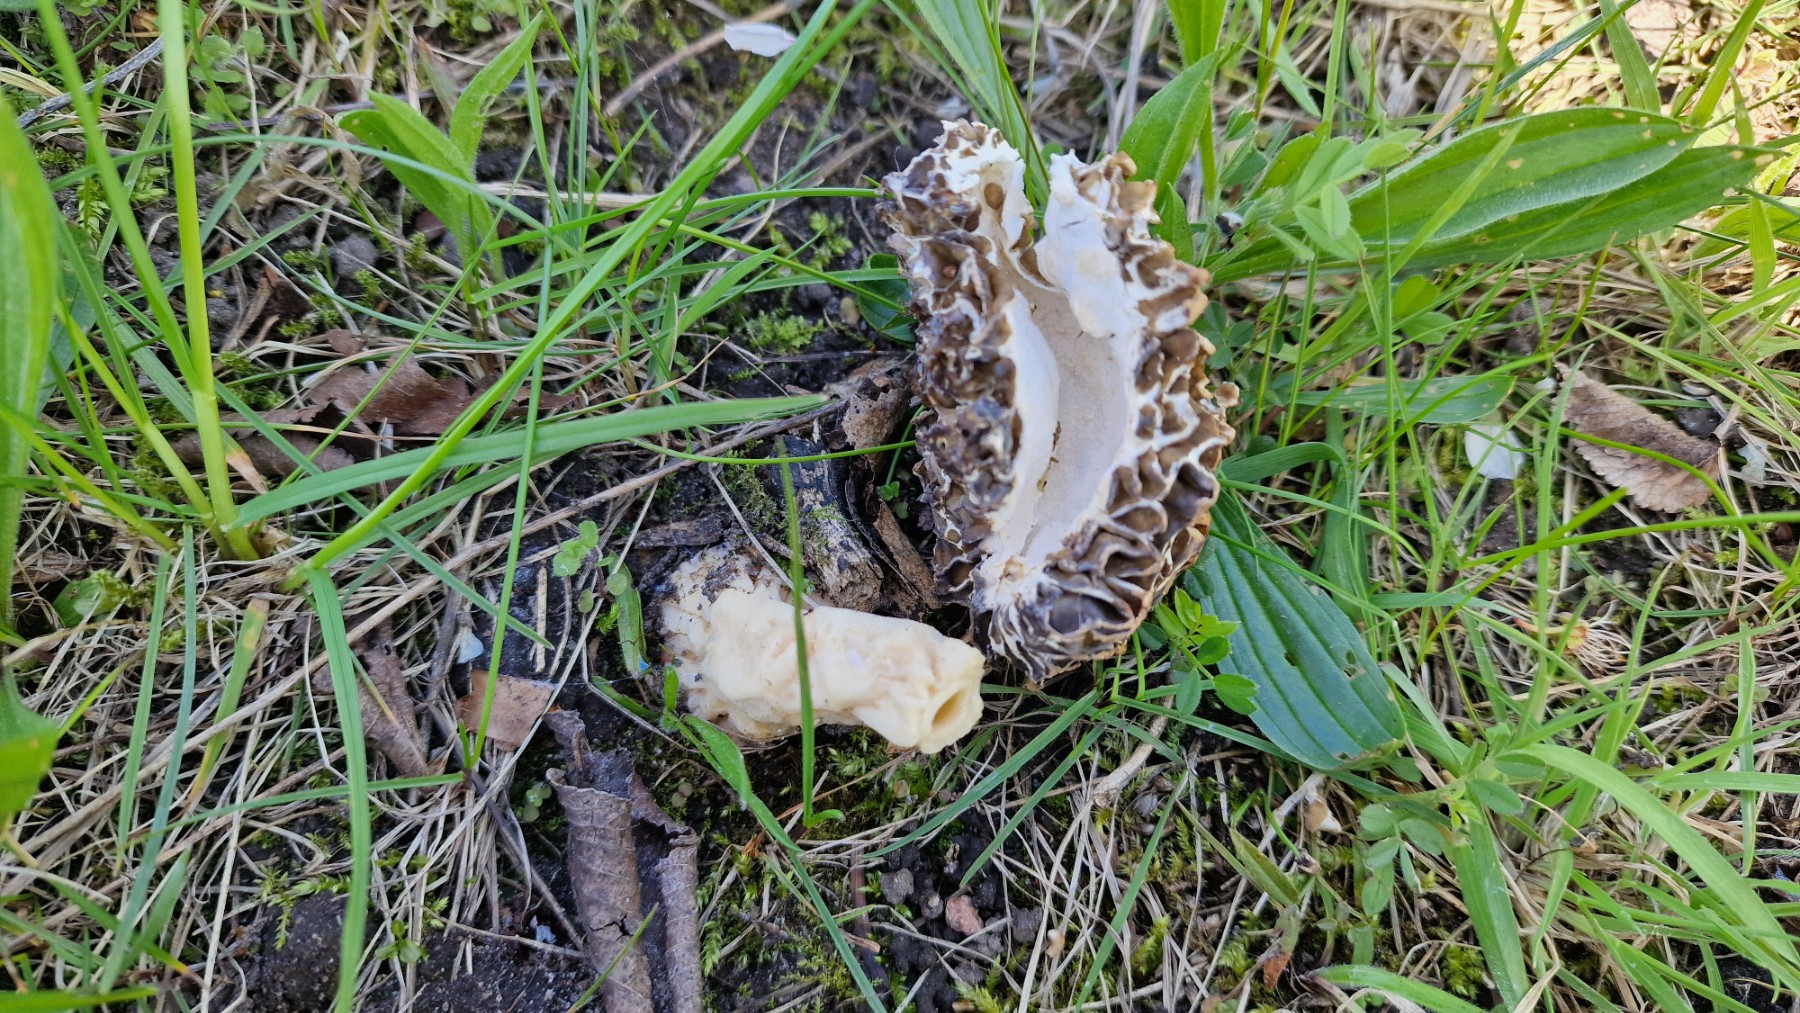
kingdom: Fungi
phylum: Ascomycota
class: Pezizomycetes
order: Pezizales
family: Morchellaceae
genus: Morchella
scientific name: Morchella esculenta
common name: almindelig morkel
